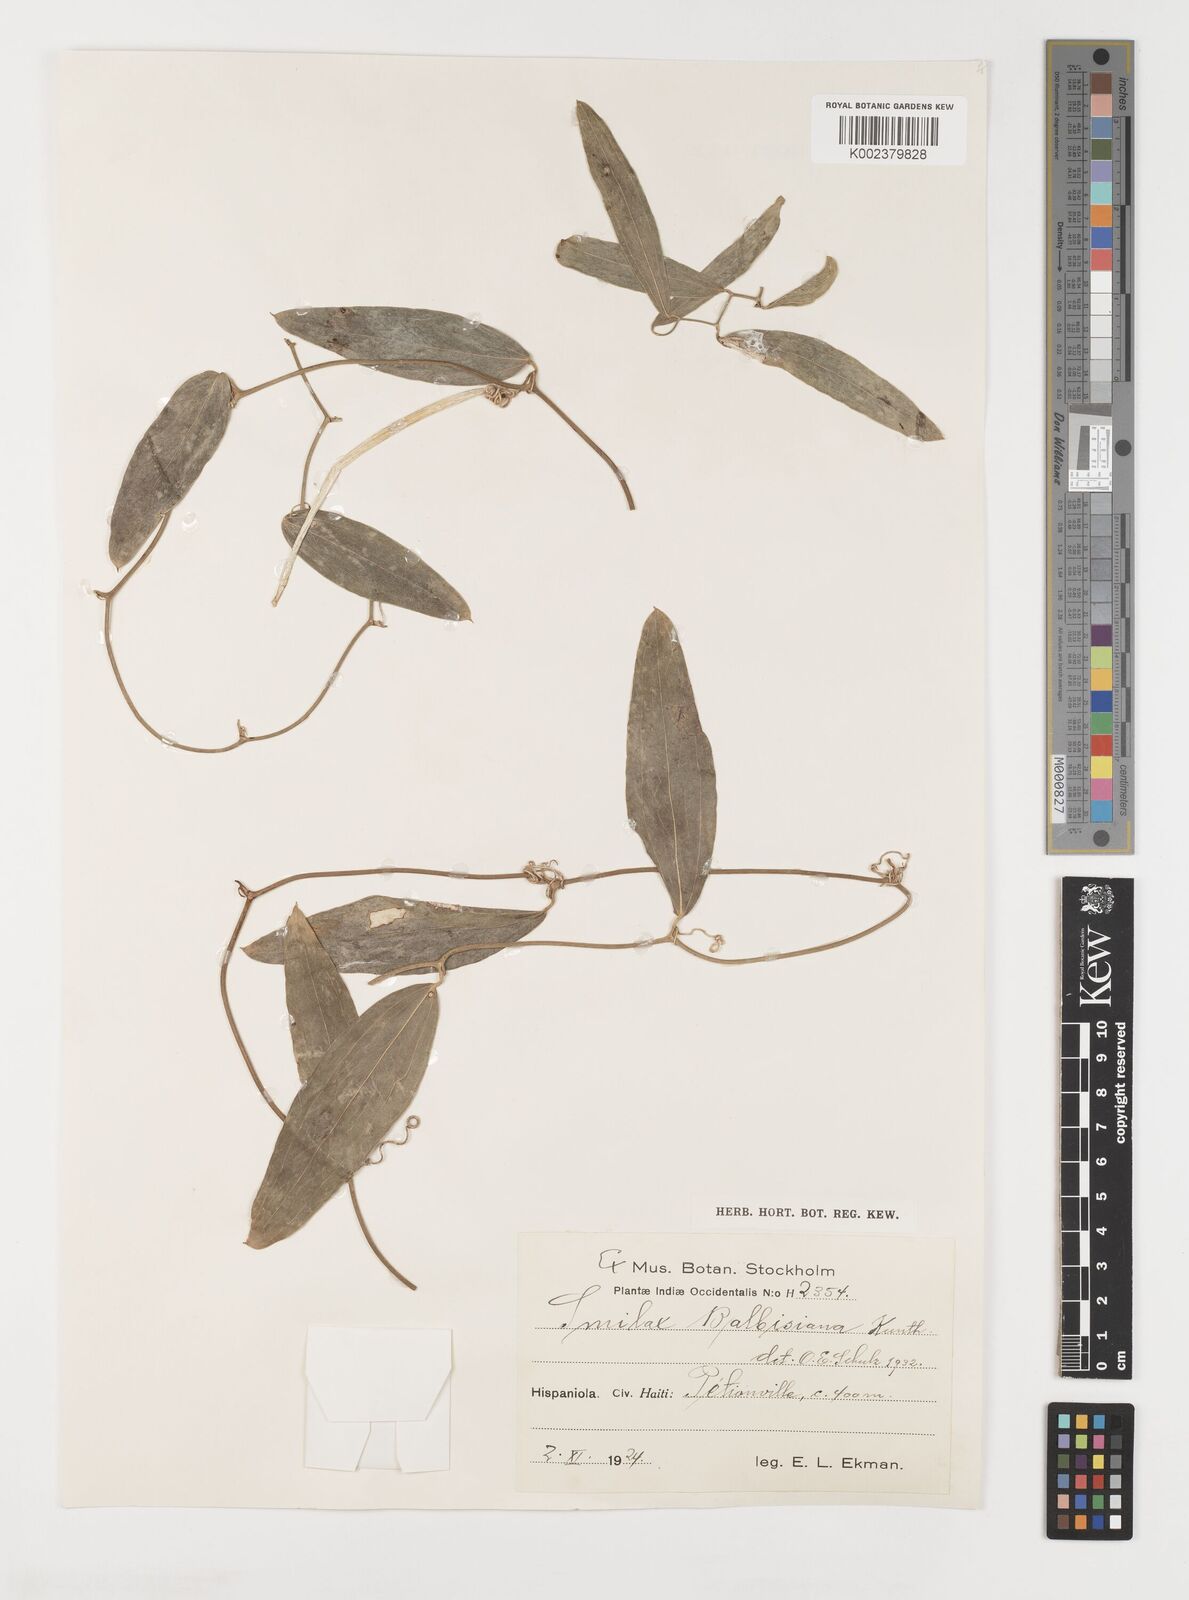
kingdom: Plantae
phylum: Tracheophyta
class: Liliopsida
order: Liliales
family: Smilacaceae
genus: Smilax
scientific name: Smilax domingensis
